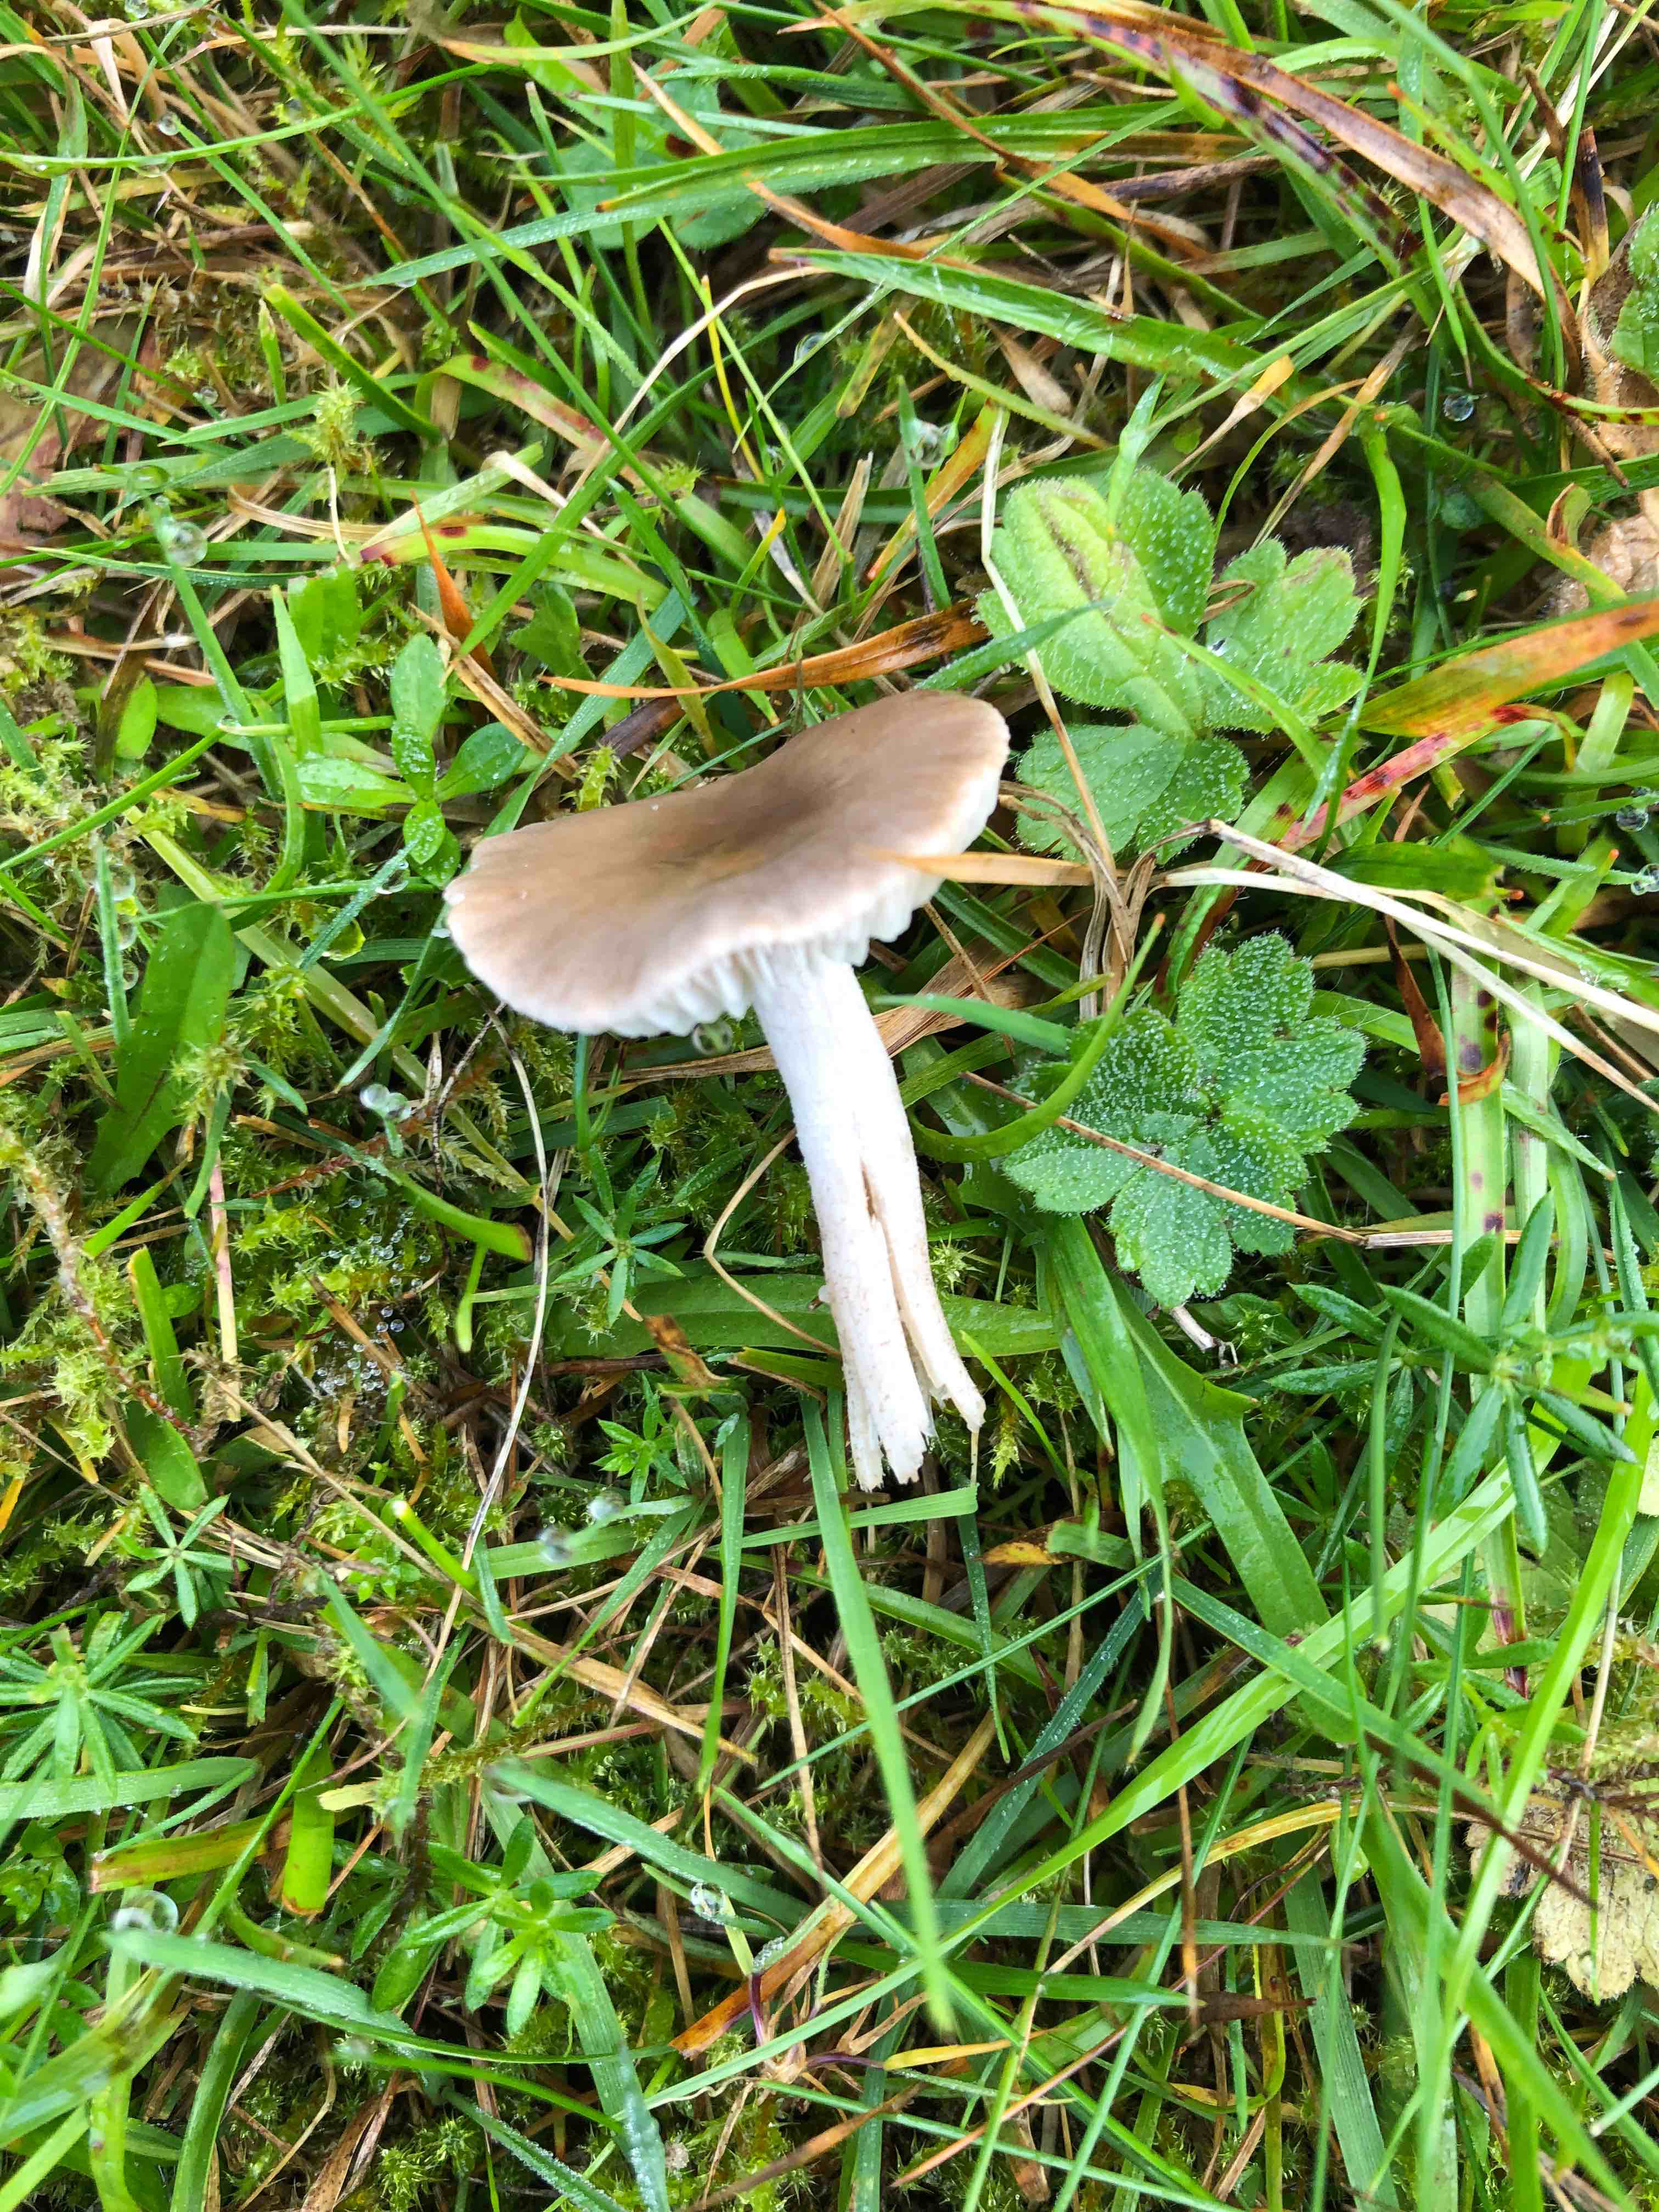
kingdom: Fungi
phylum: Basidiomycota
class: Agaricomycetes
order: Agaricales
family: Tricholomataceae
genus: Dermoloma
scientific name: Dermoloma cuneifolium
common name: eng-nonnehat
